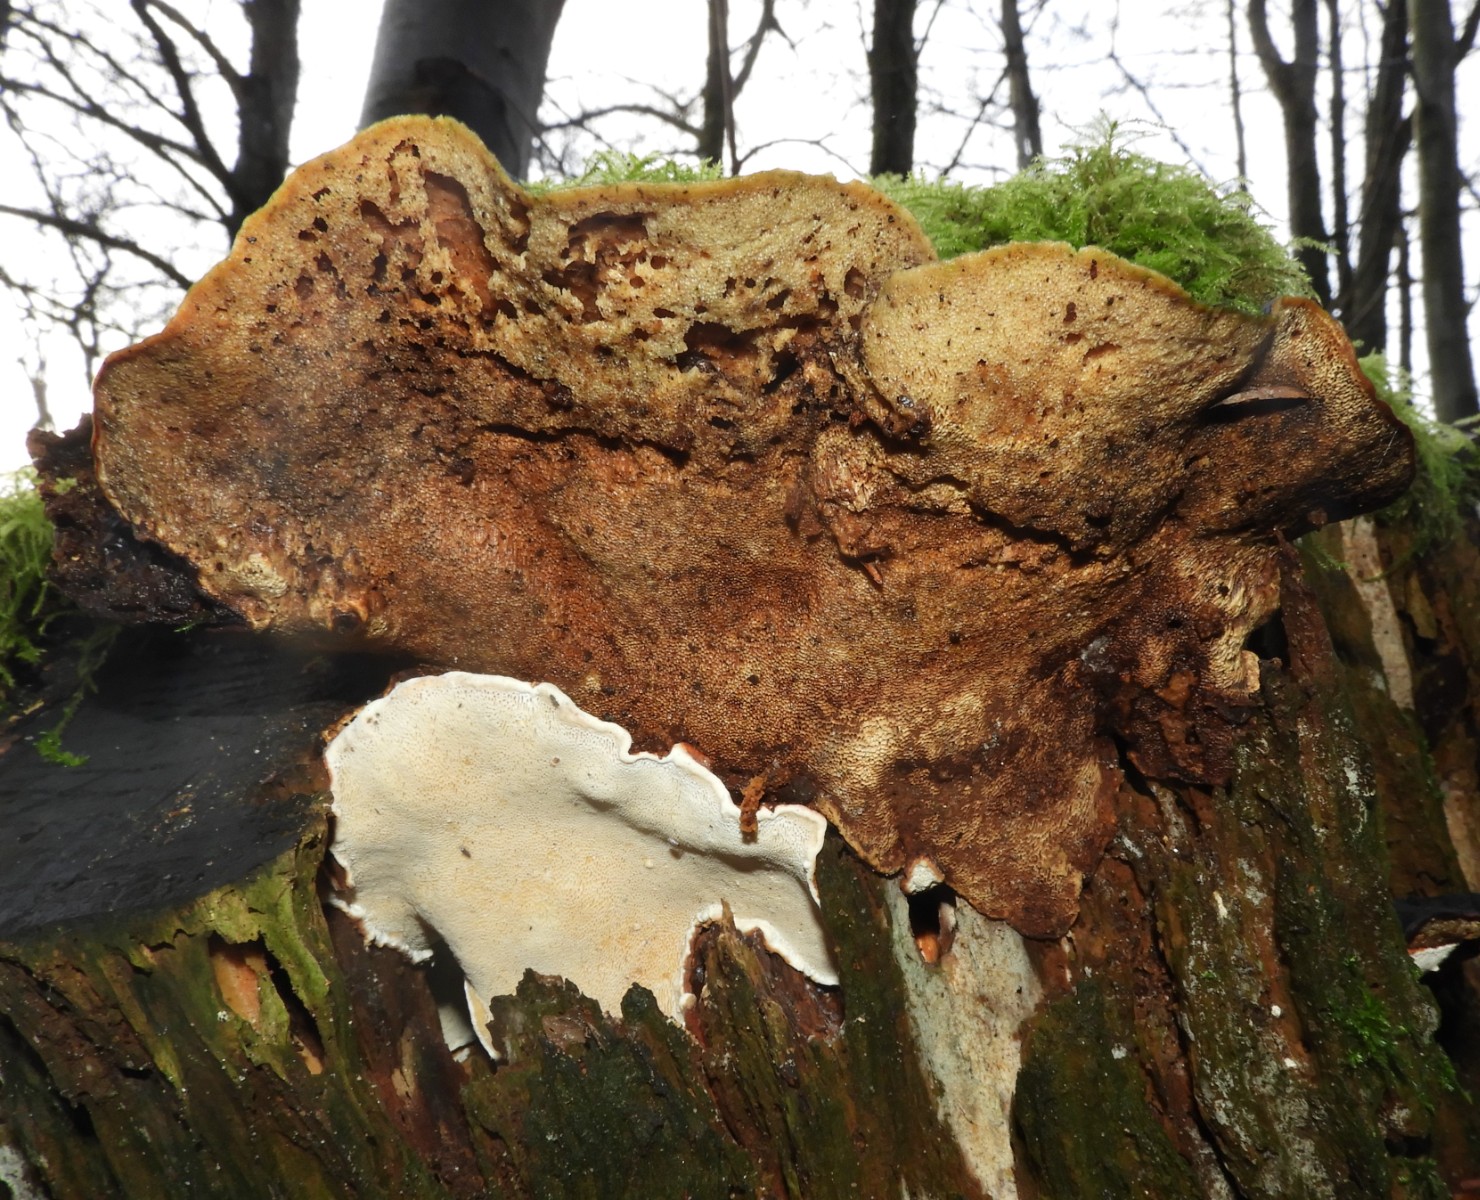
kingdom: Fungi
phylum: Basidiomycota
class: Agaricomycetes
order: Russulales
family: Bondarzewiaceae
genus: Heterobasidion
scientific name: Heterobasidion annosum
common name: almindelig rodfordærver
